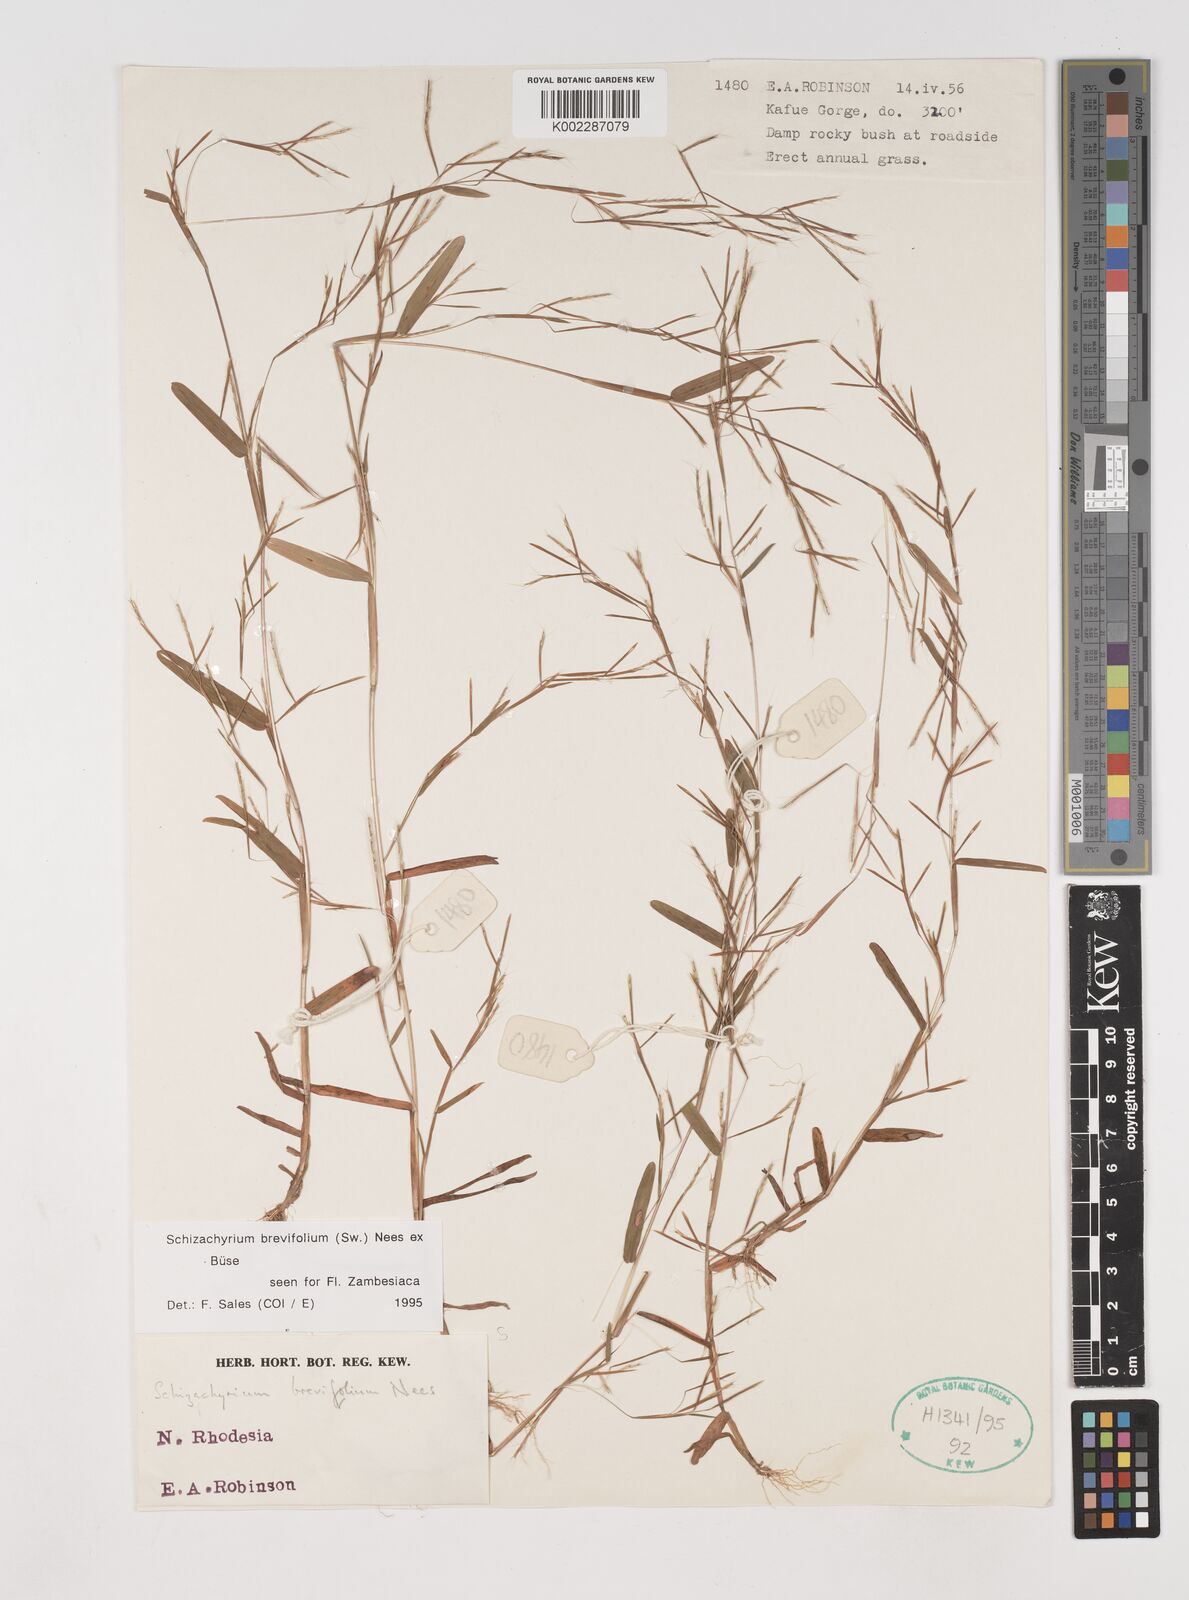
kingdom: Plantae
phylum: Tracheophyta
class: Liliopsida
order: Poales
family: Poaceae
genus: Schizachyrium
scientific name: Schizachyrium brevifolium
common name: Serillo dulce
